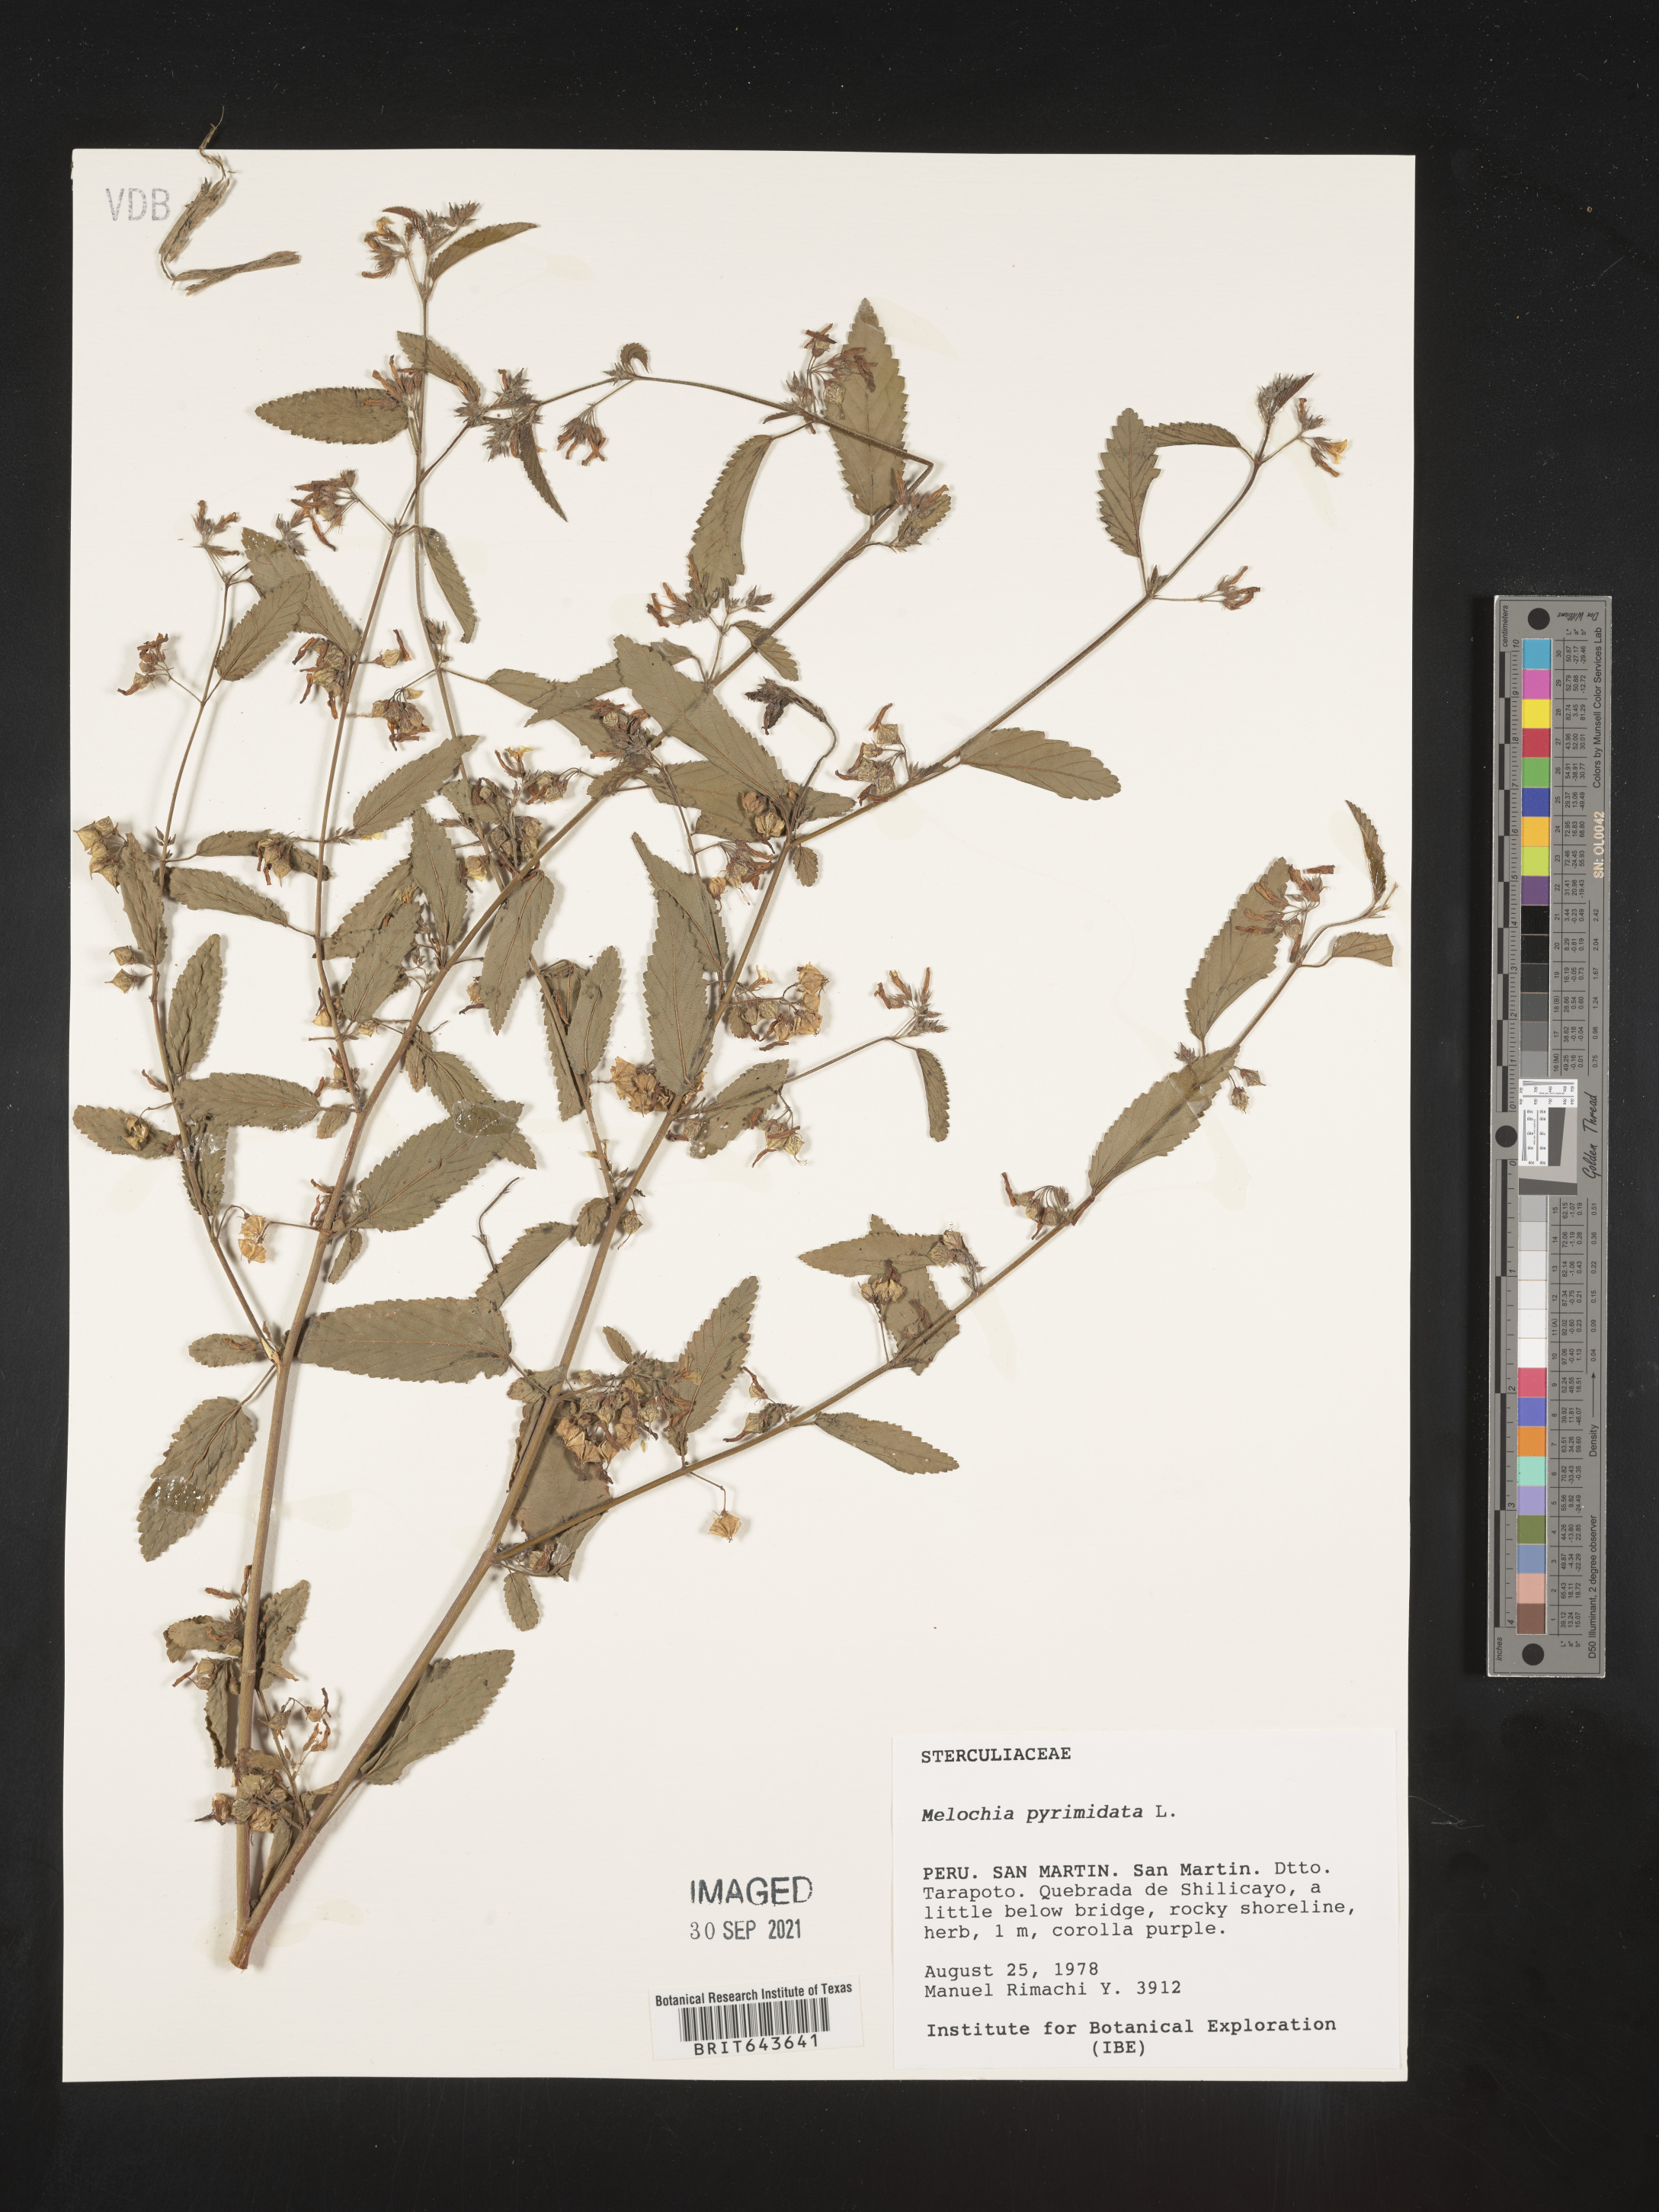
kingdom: Plantae
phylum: Tracheophyta
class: Magnoliopsida
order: Malvales
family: Malvaceae
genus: Melochia
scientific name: Melochia
